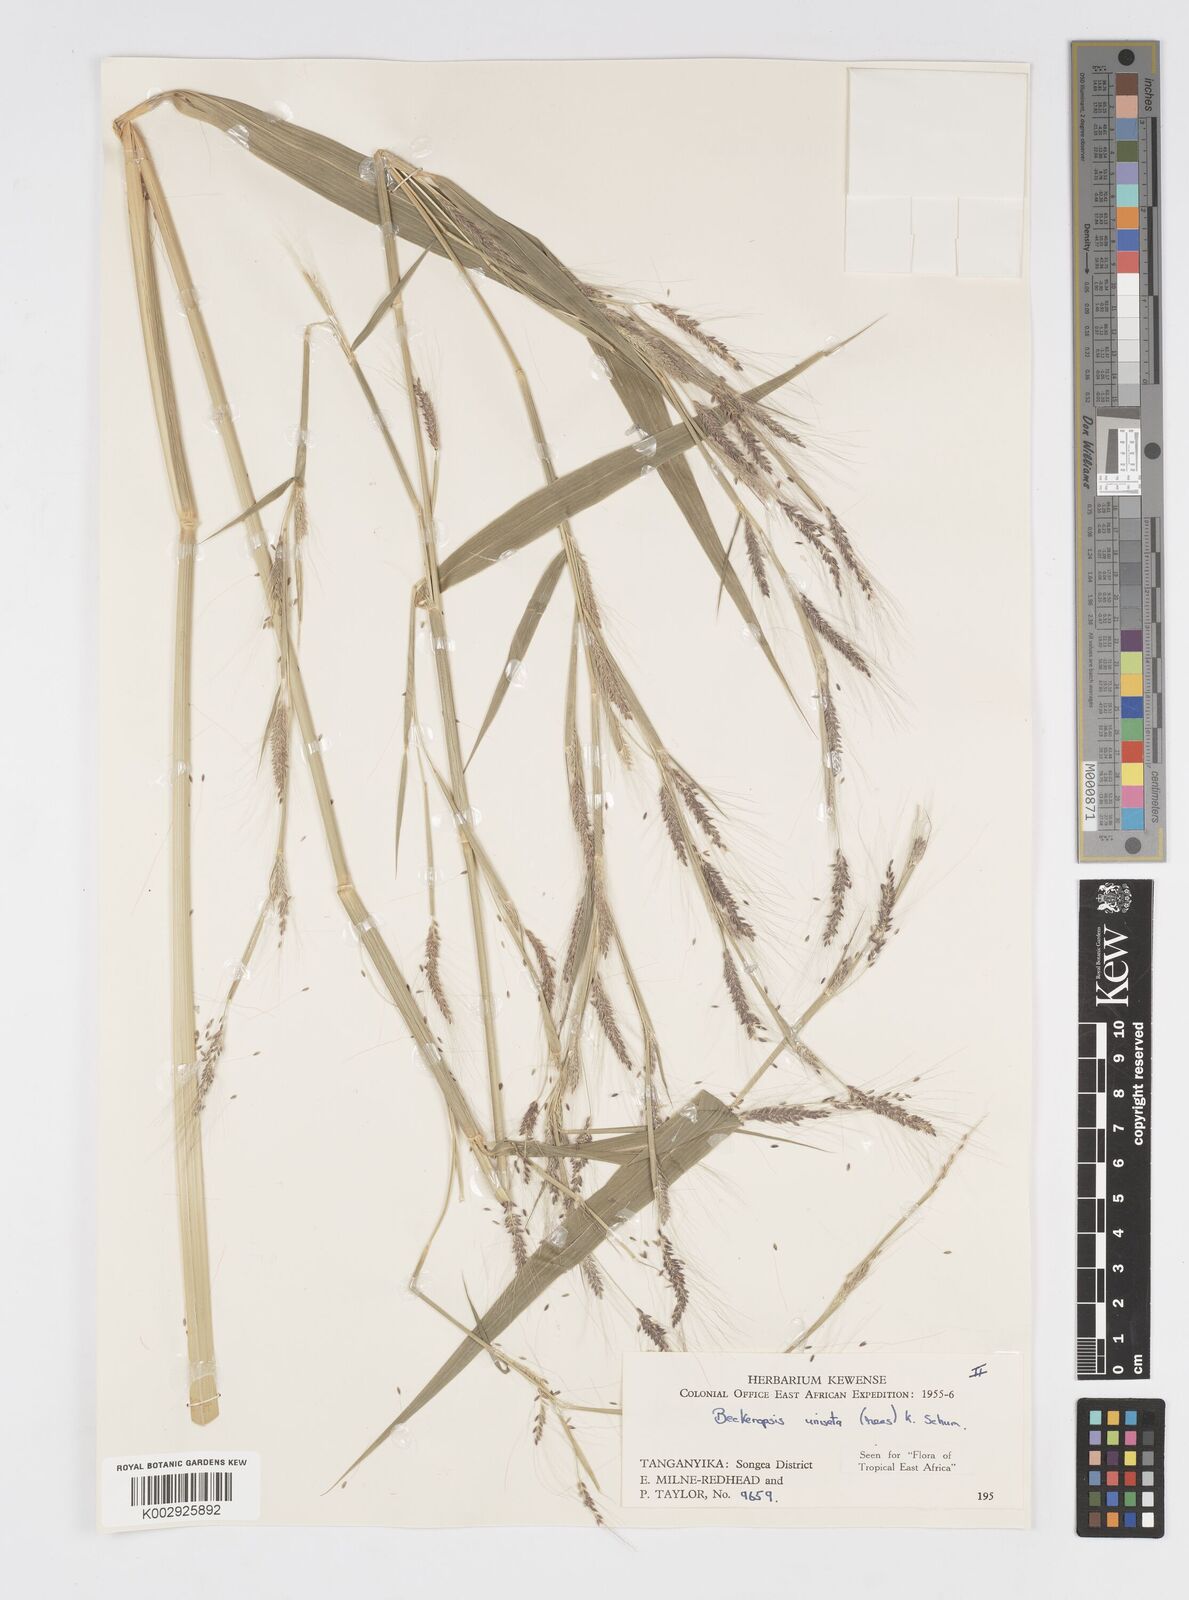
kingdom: Plantae
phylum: Tracheophyta
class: Liliopsida
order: Poales
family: Poaceae
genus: Cenchrus
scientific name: Cenchrus Pennisetum spec
